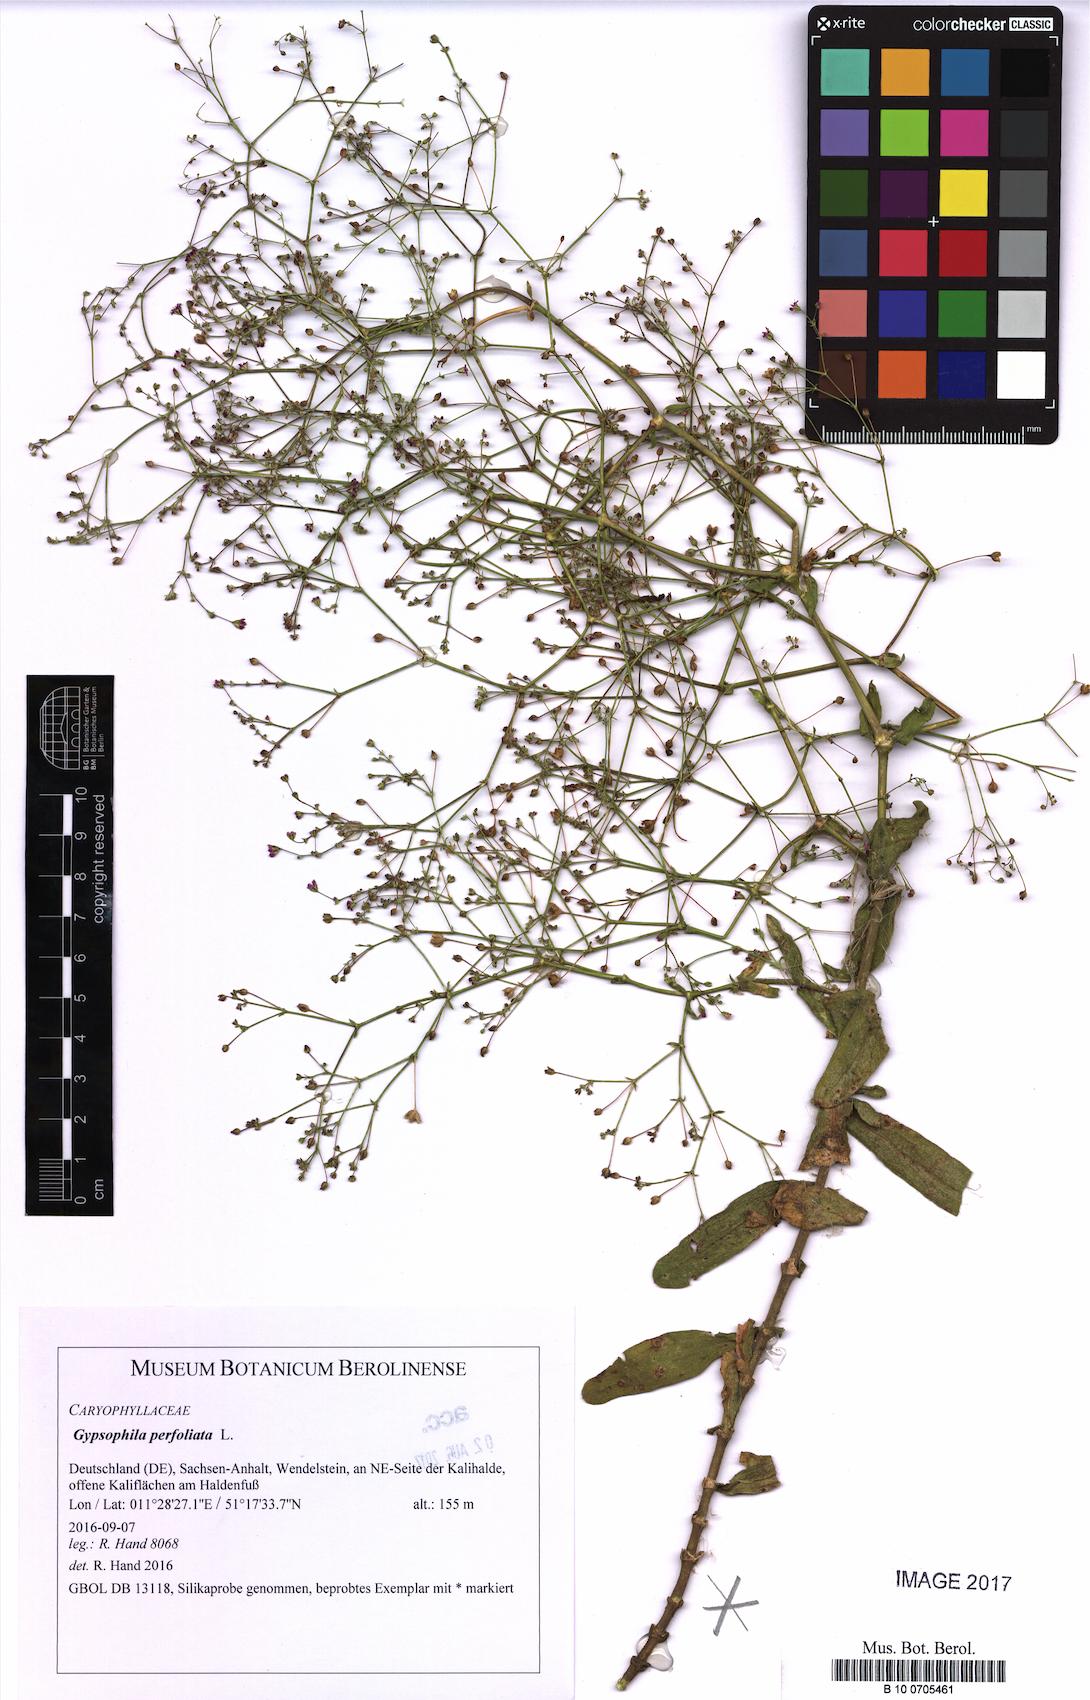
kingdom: Plantae
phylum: Tracheophyta
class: Magnoliopsida
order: Caryophyllales
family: Caryophyllaceae
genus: Gypsophila
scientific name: Gypsophila perfoliata
